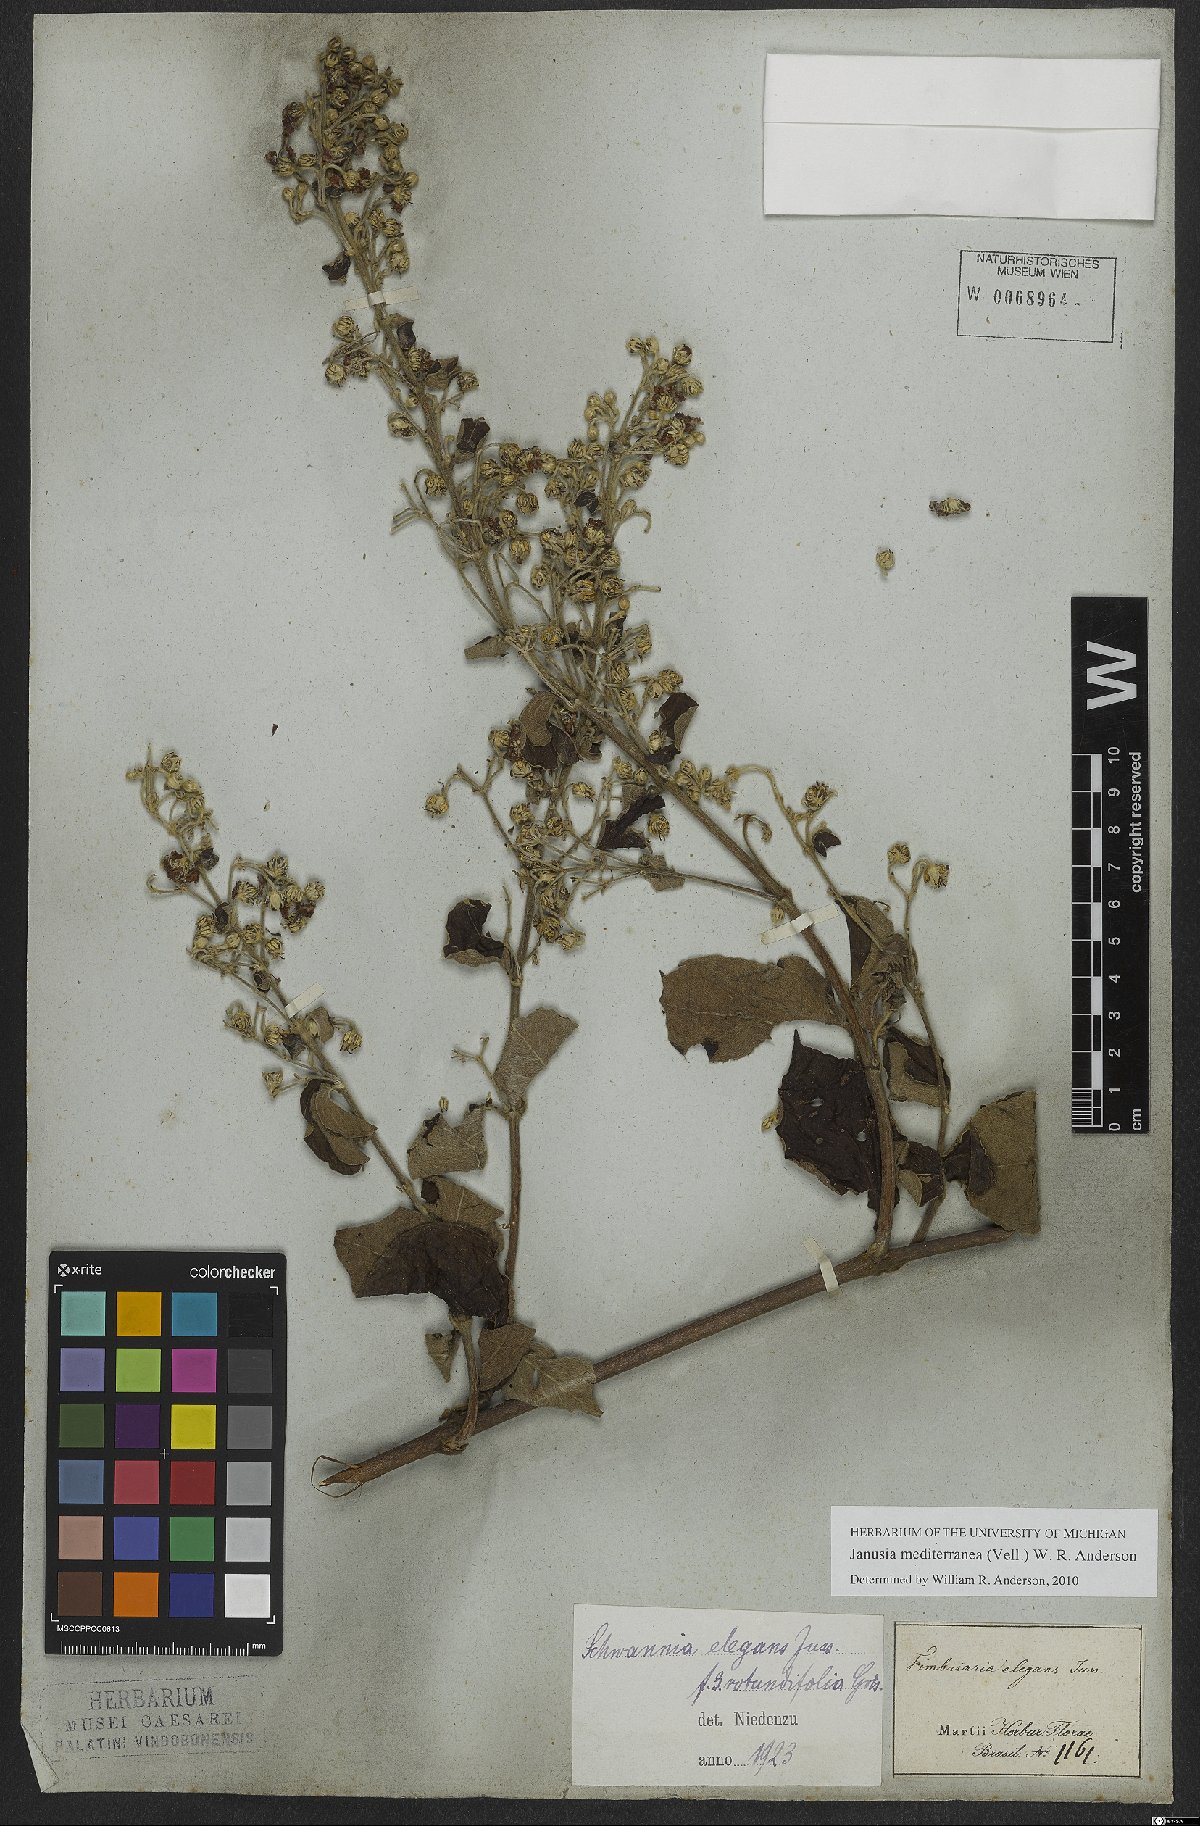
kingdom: Plantae
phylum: Tracheophyta
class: Magnoliopsida
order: Malpighiales
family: Malpighiaceae
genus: Janusia
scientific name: Janusia mediterranea
